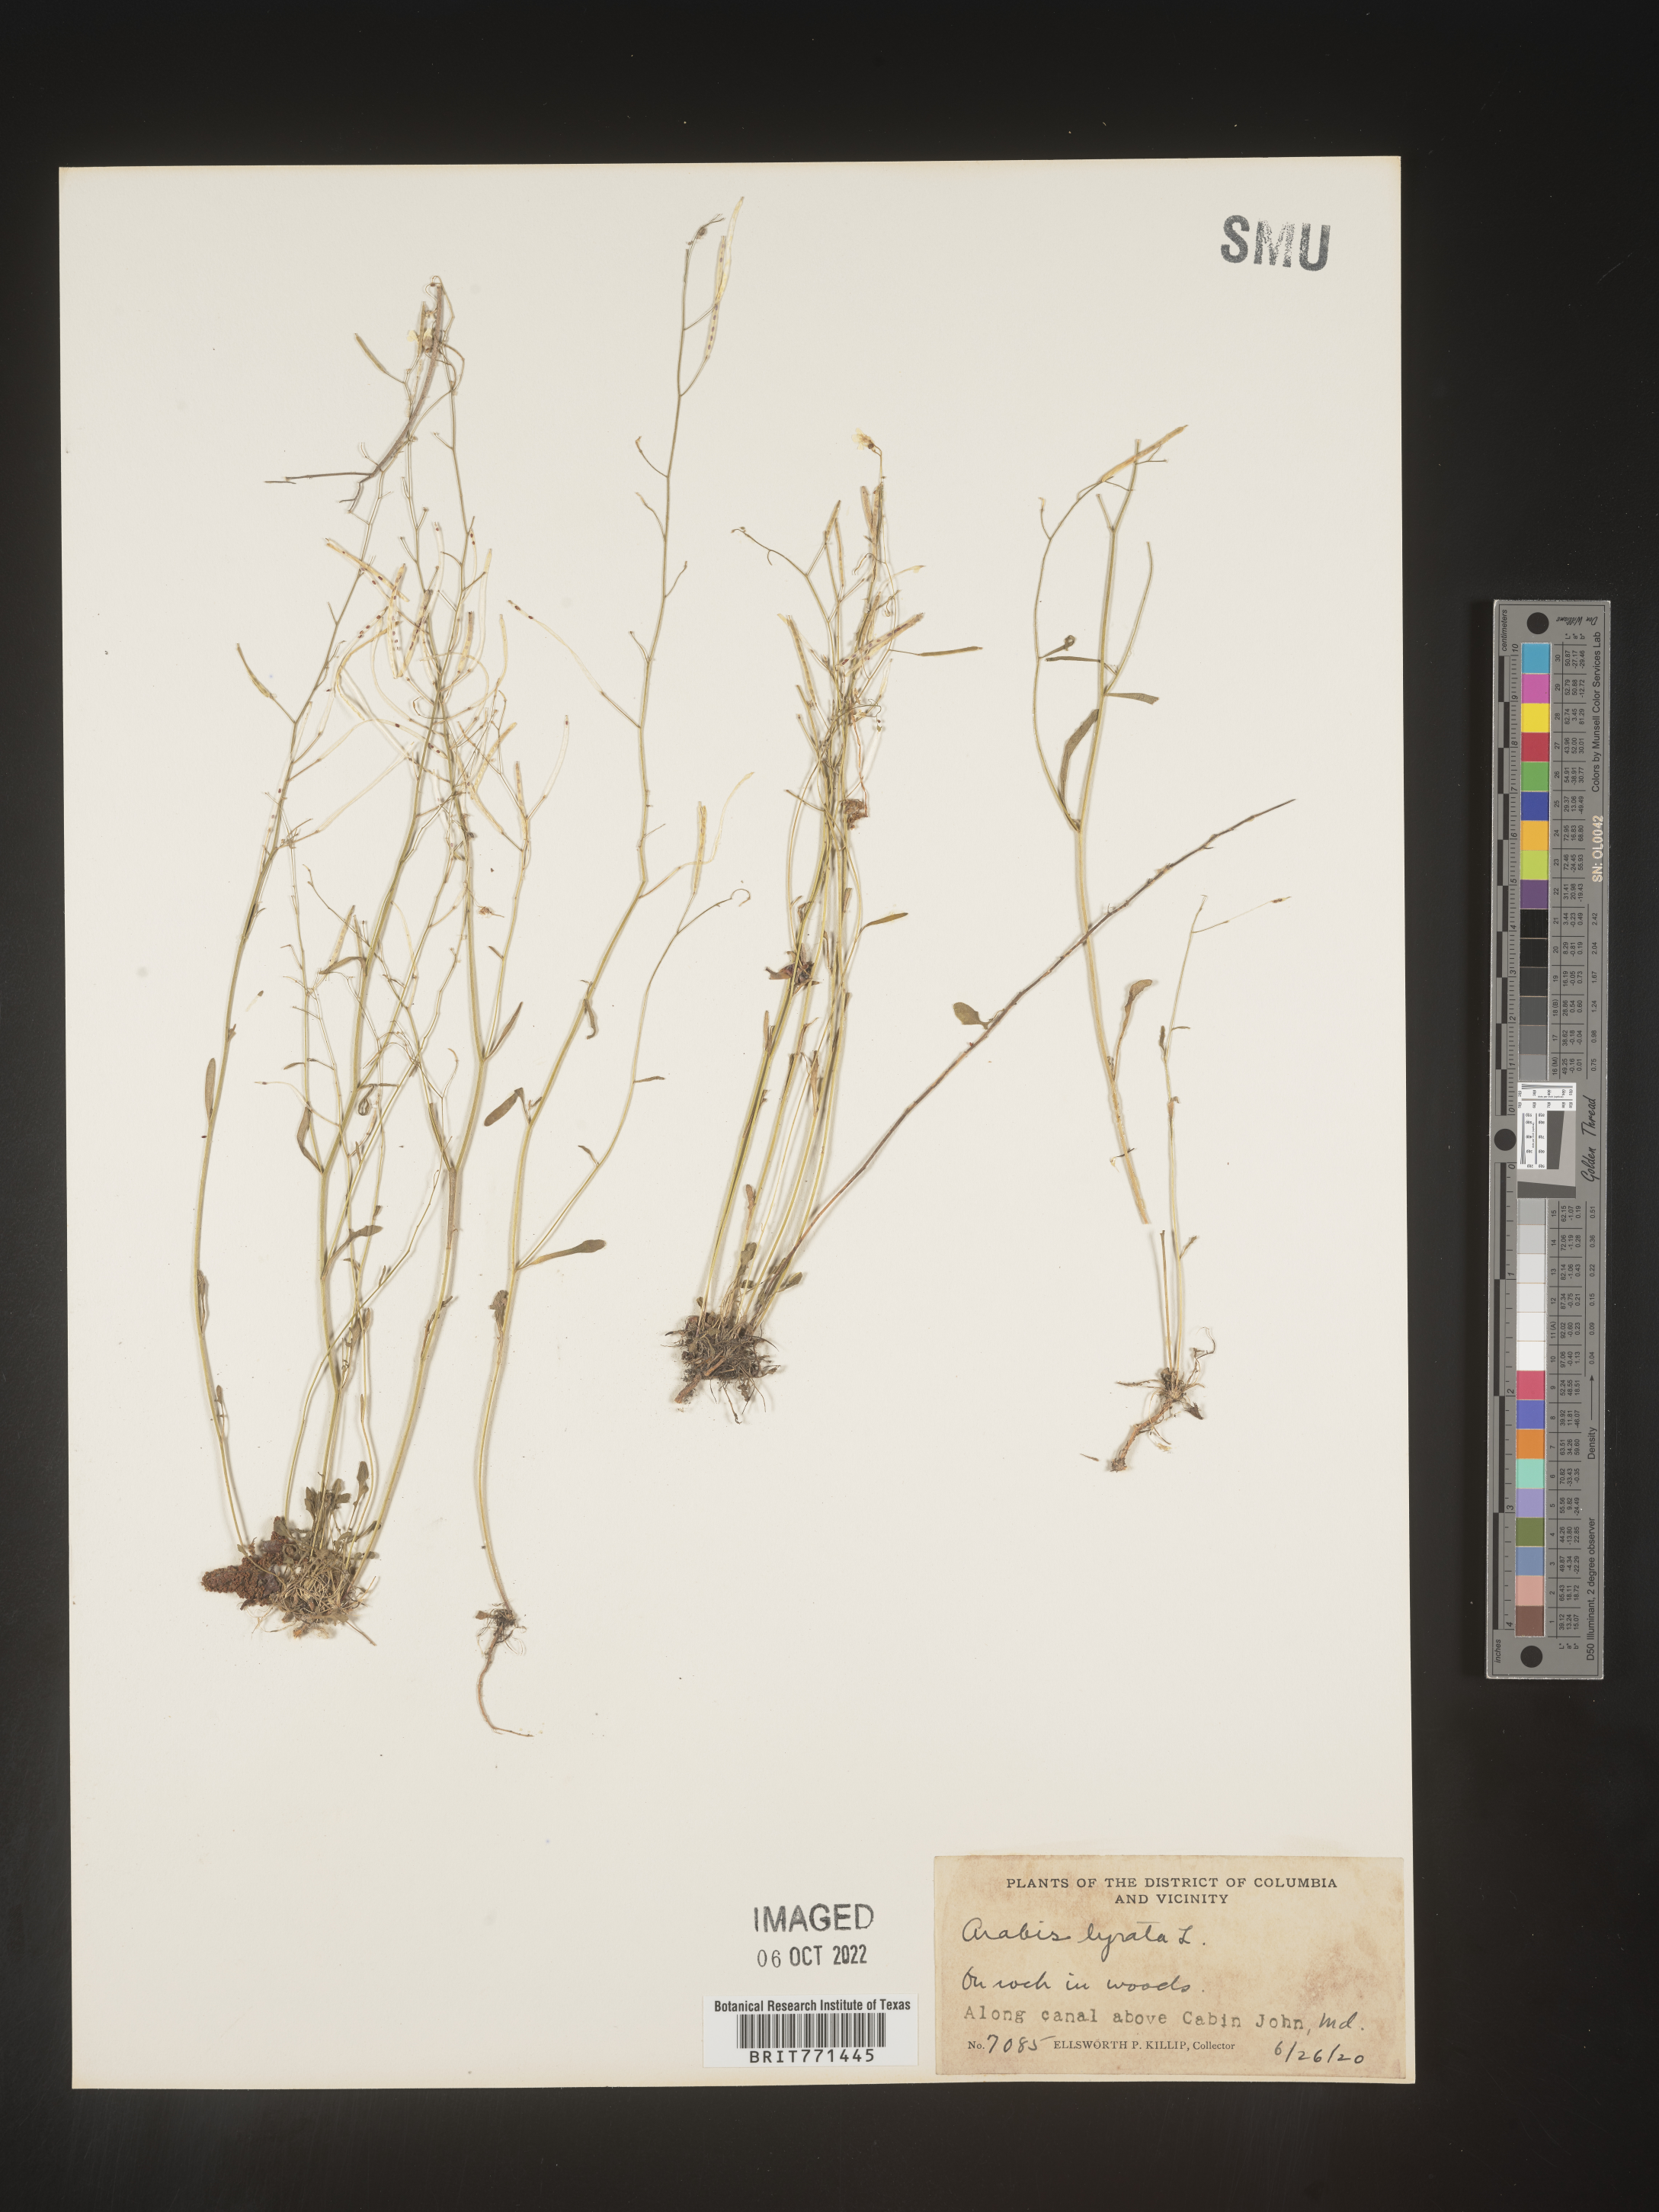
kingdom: Plantae
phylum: Tracheophyta
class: Magnoliopsida
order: Brassicales
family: Brassicaceae
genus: Arabidopsis
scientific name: Arabidopsis lyrata
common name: Lyrate rockcress
